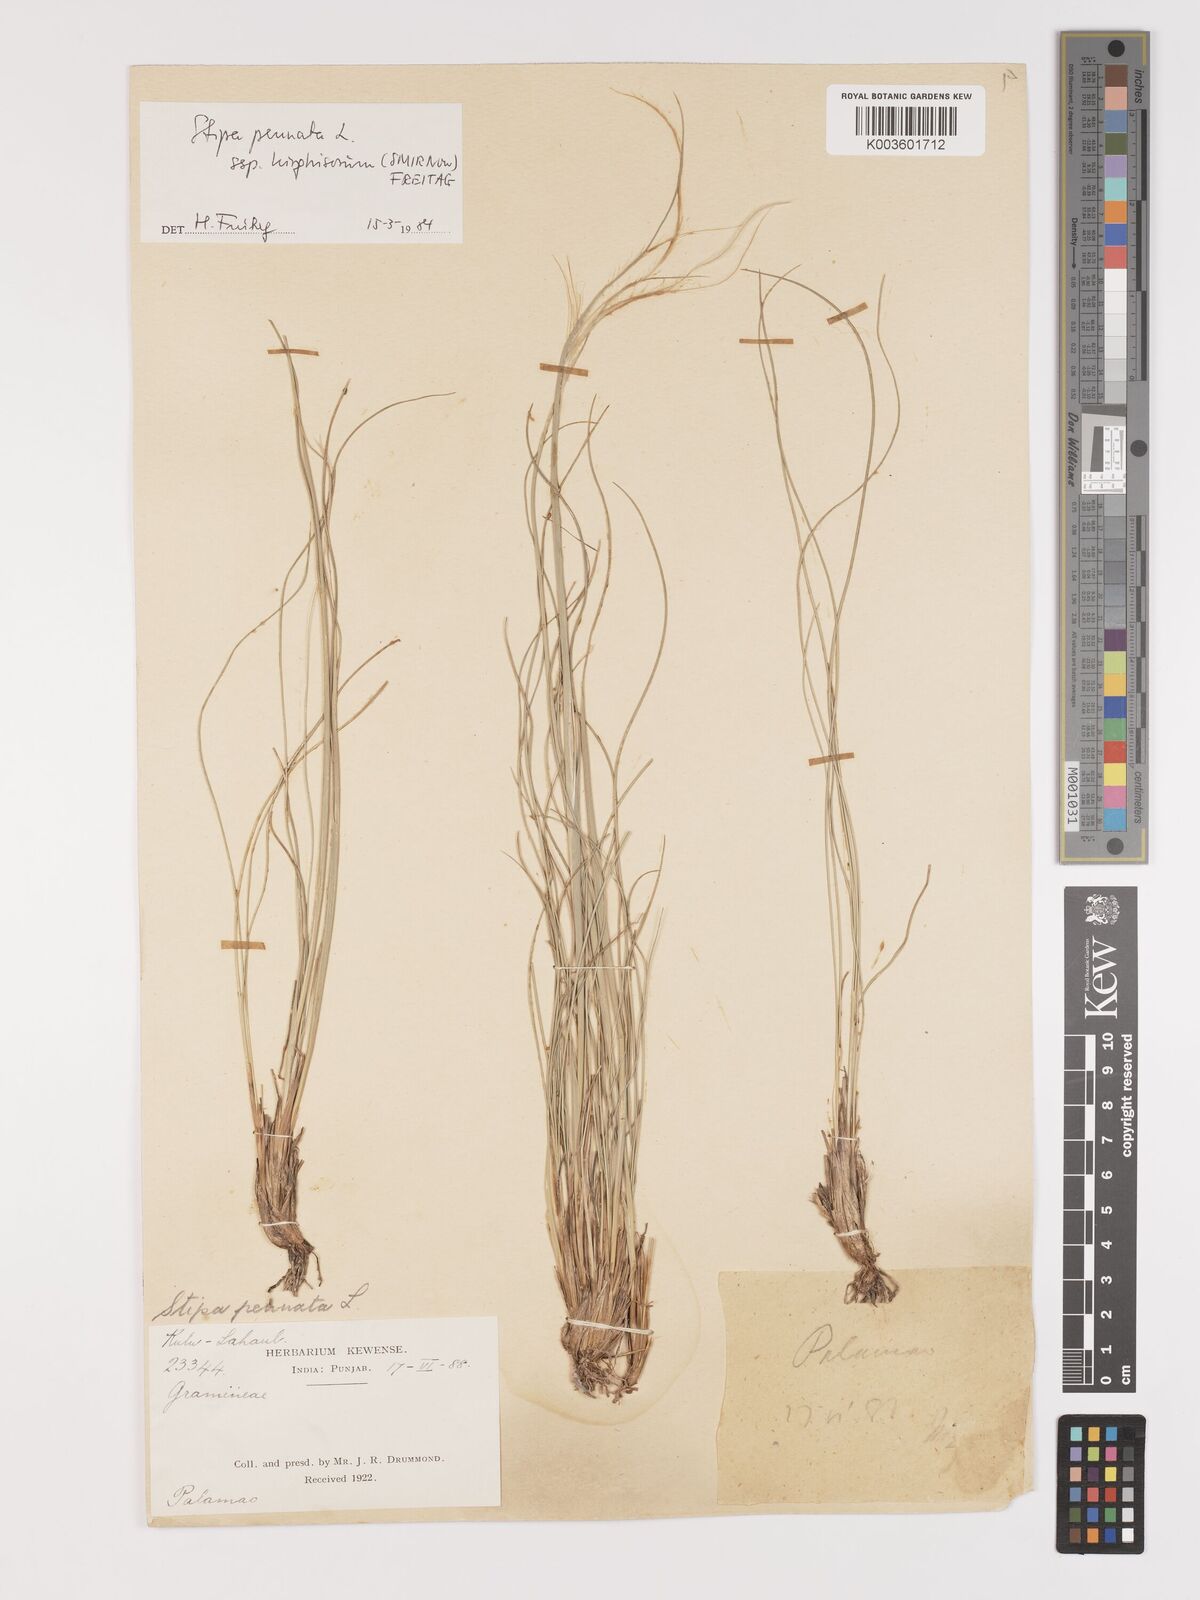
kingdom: Plantae
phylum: Tracheophyta
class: Liliopsida
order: Poales
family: Poaceae
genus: Stipa
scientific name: Stipa kirghisorum
